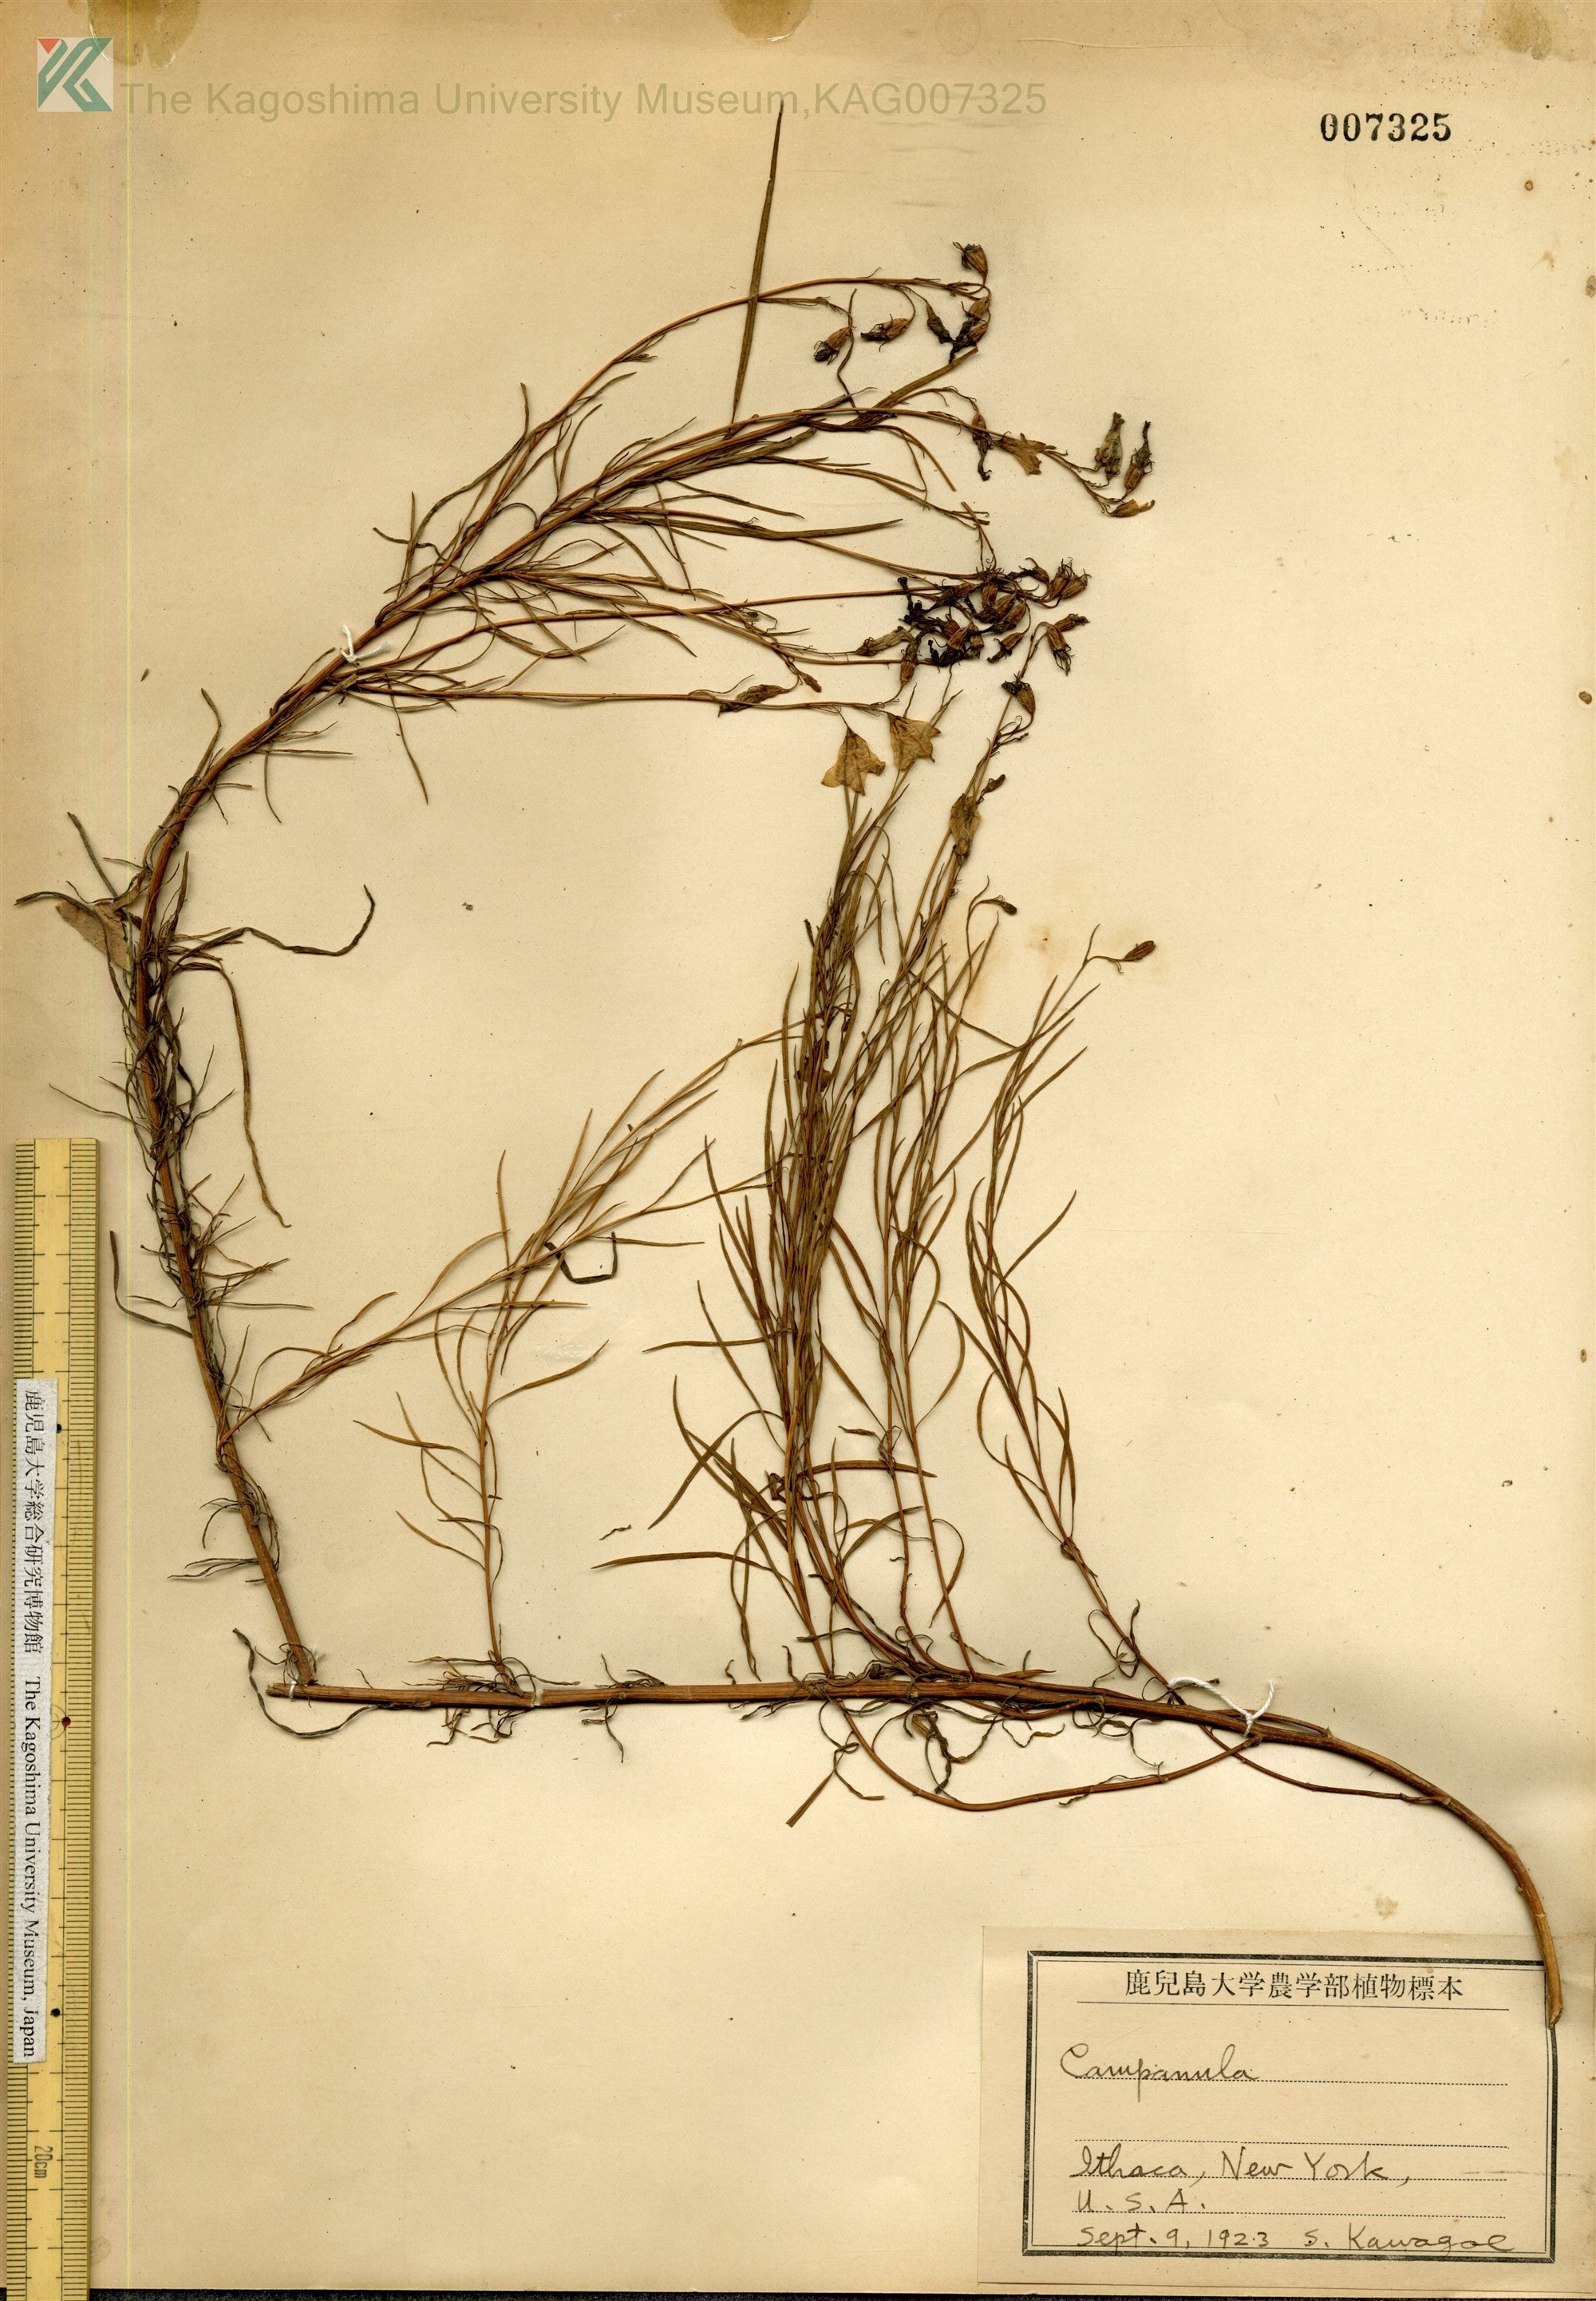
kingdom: Plantae
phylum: Tracheophyta
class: Magnoliopsida
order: Asterales
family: Campanulaceae
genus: Palustricodon
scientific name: Palustricodon aparinoides
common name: Bedstraw bellflower
